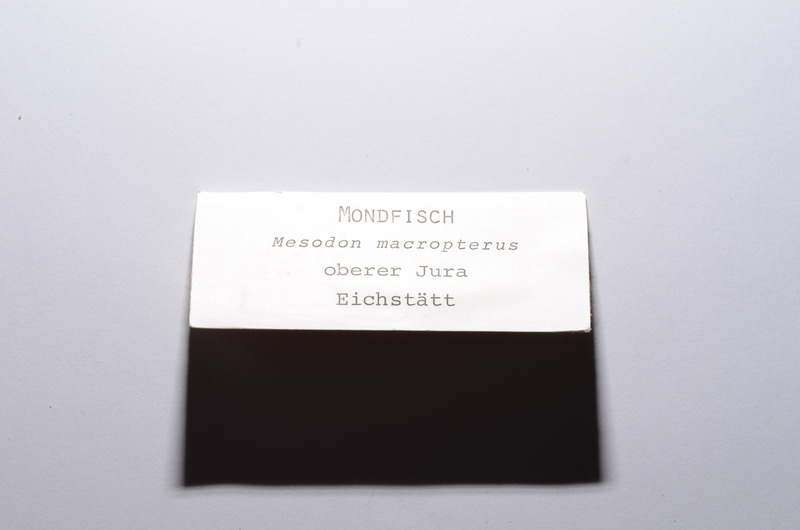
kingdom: Animalia
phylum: Chordata
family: Pycnodontes
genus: Macromesodon
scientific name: Macromesodon macropterus
